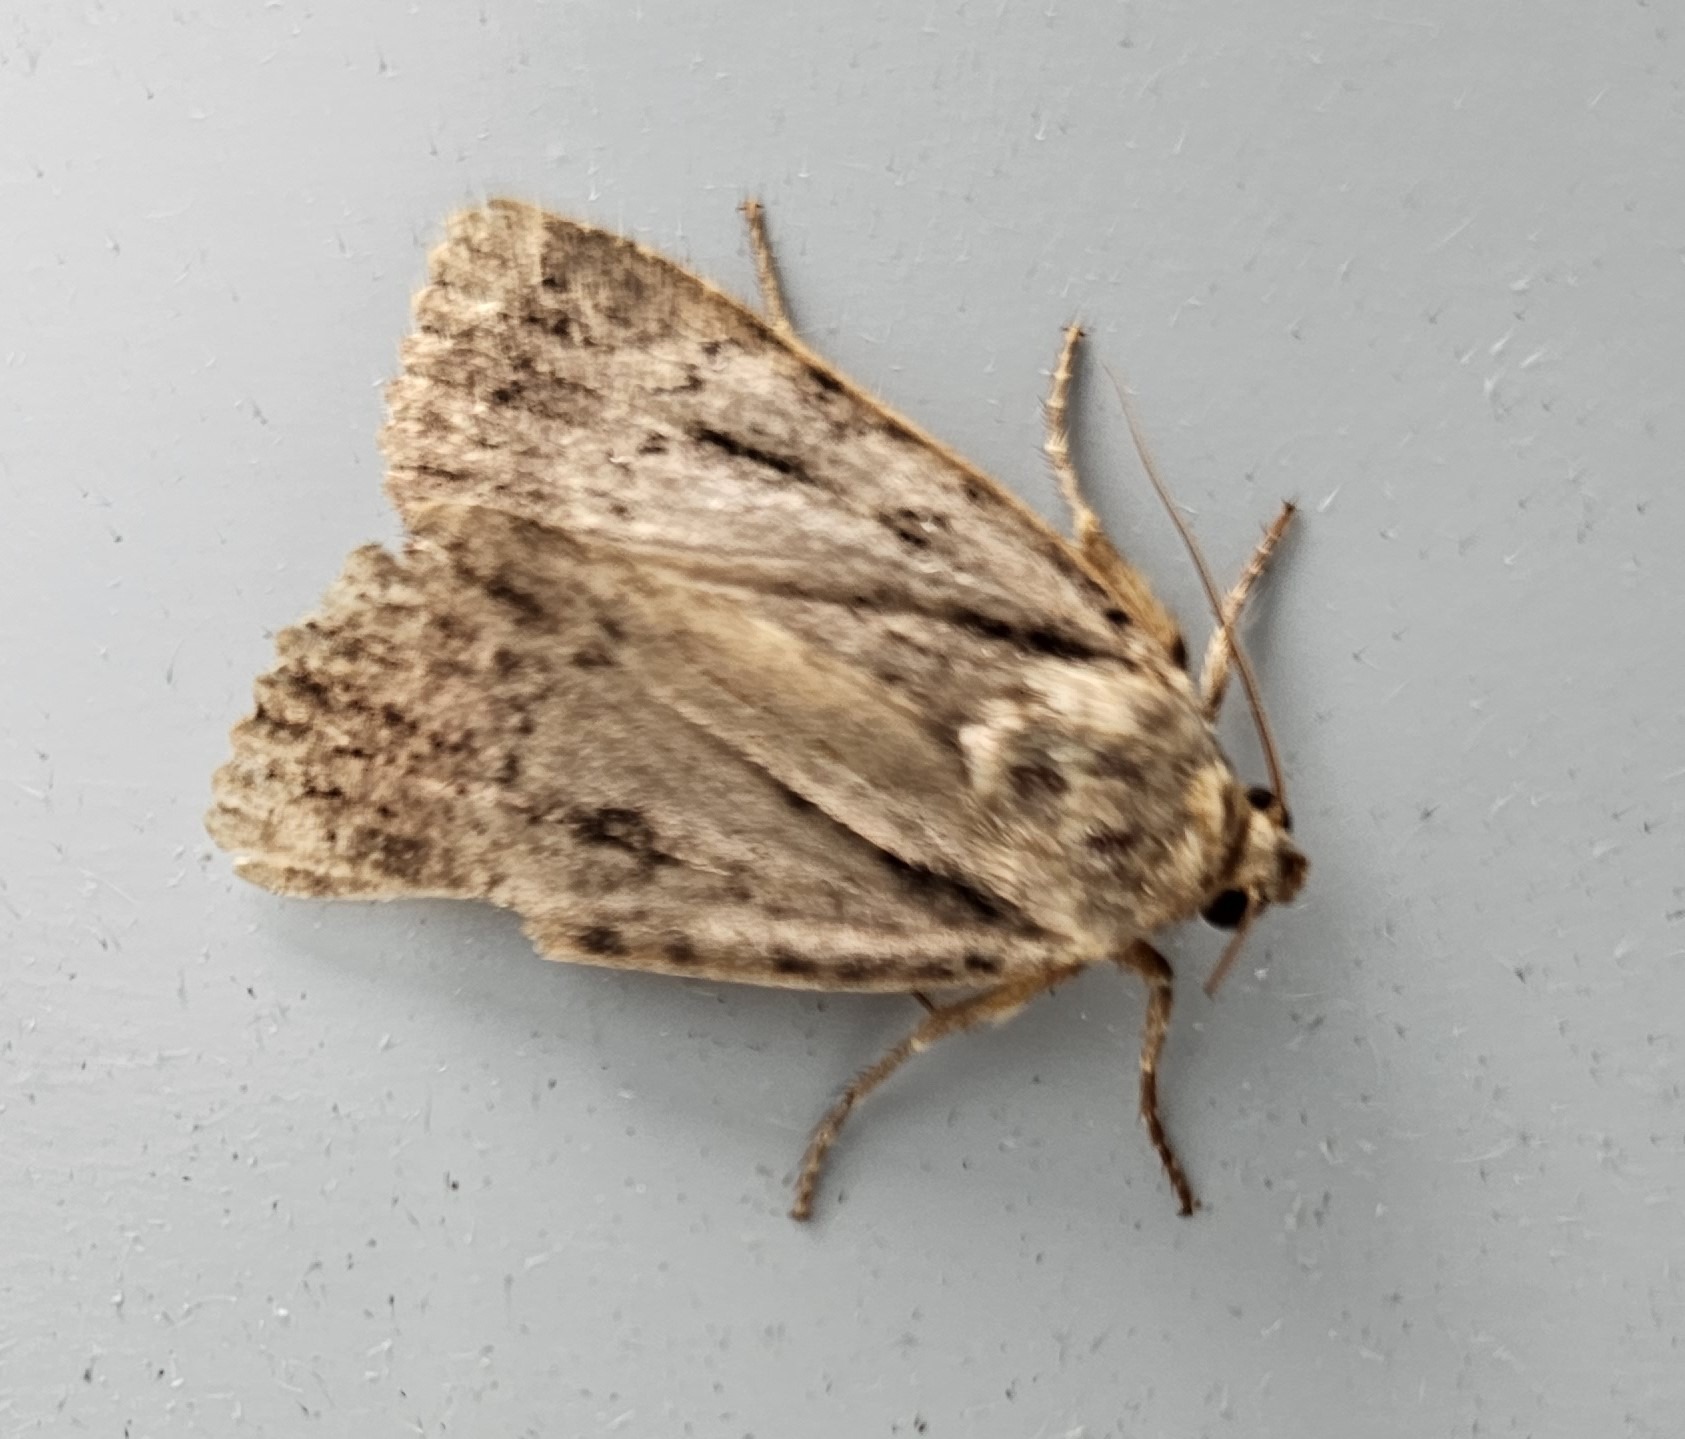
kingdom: Animalia
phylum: Arthropoda
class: Insecta
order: Lepidoptera
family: Noctuidae
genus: Amphipyra
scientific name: Amphipyra pyramidea
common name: Pyramideugle
